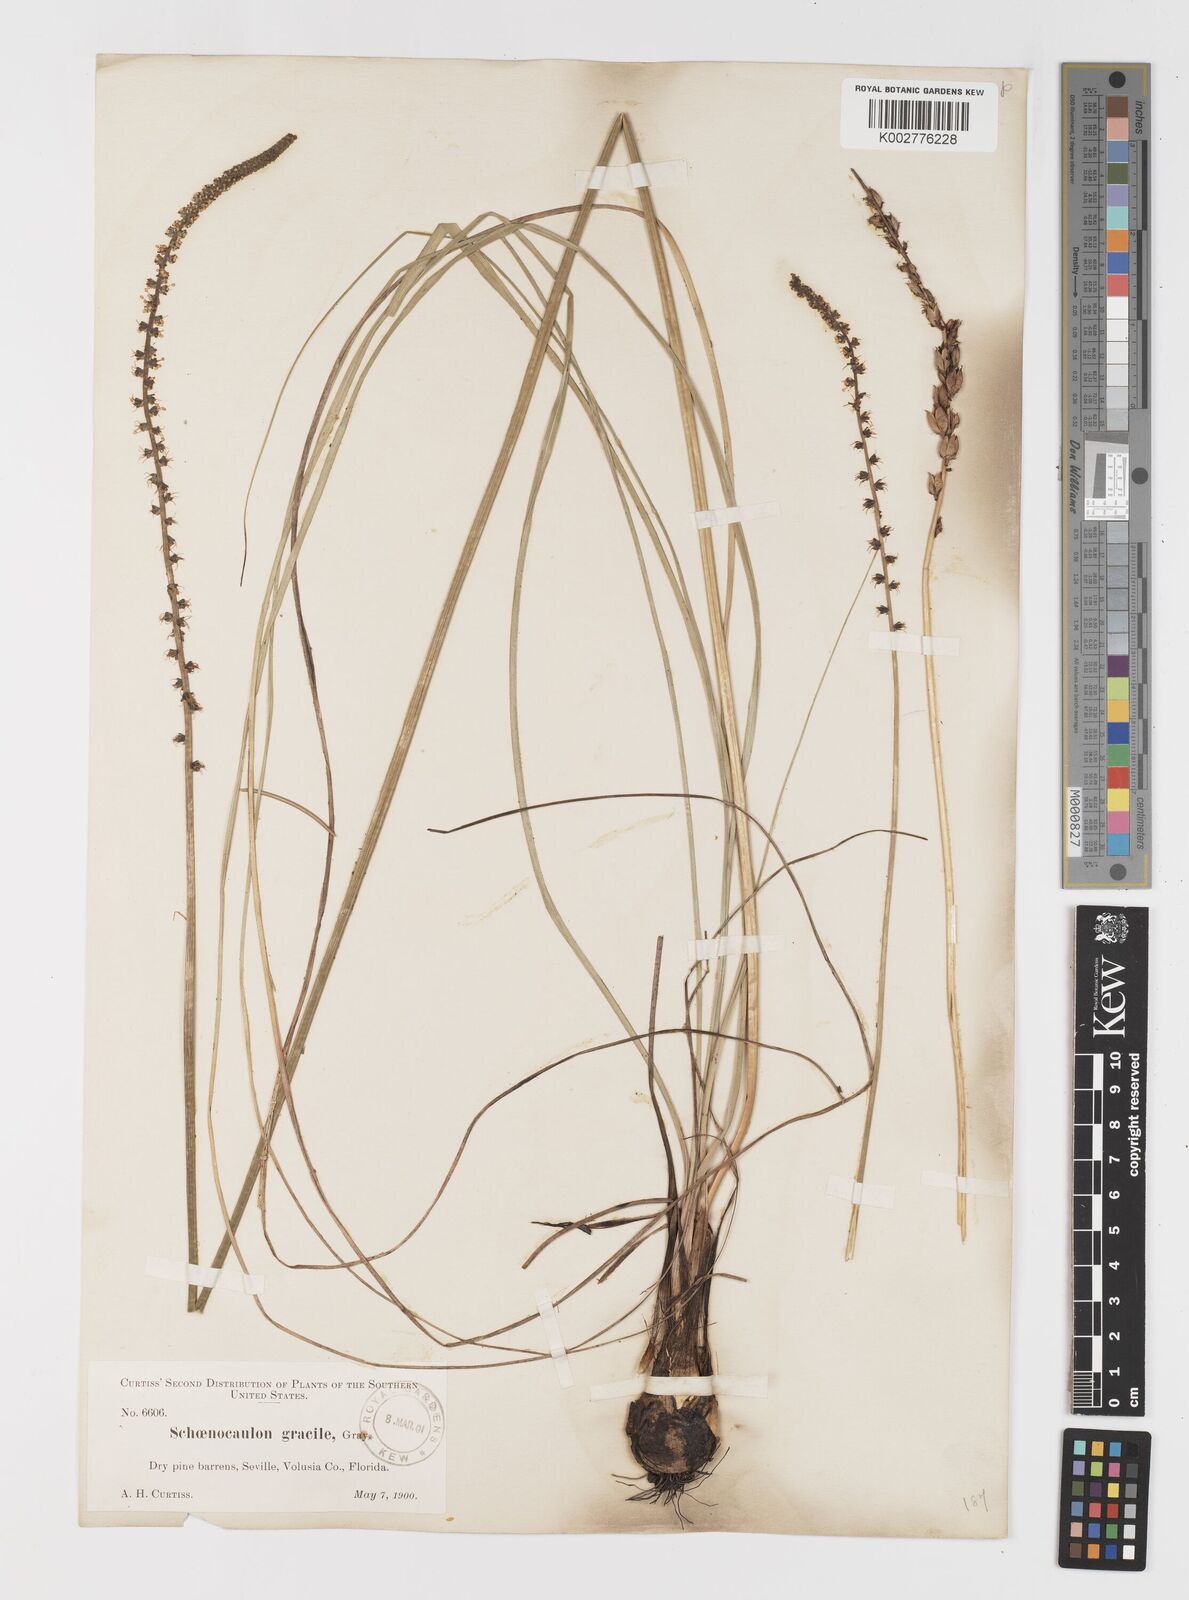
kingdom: Plantae
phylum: Tracheophyta
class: Liliopsida
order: Liliales
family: Melanthiaceae
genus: Schoenocaulon
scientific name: Schoenocaulon dubium
